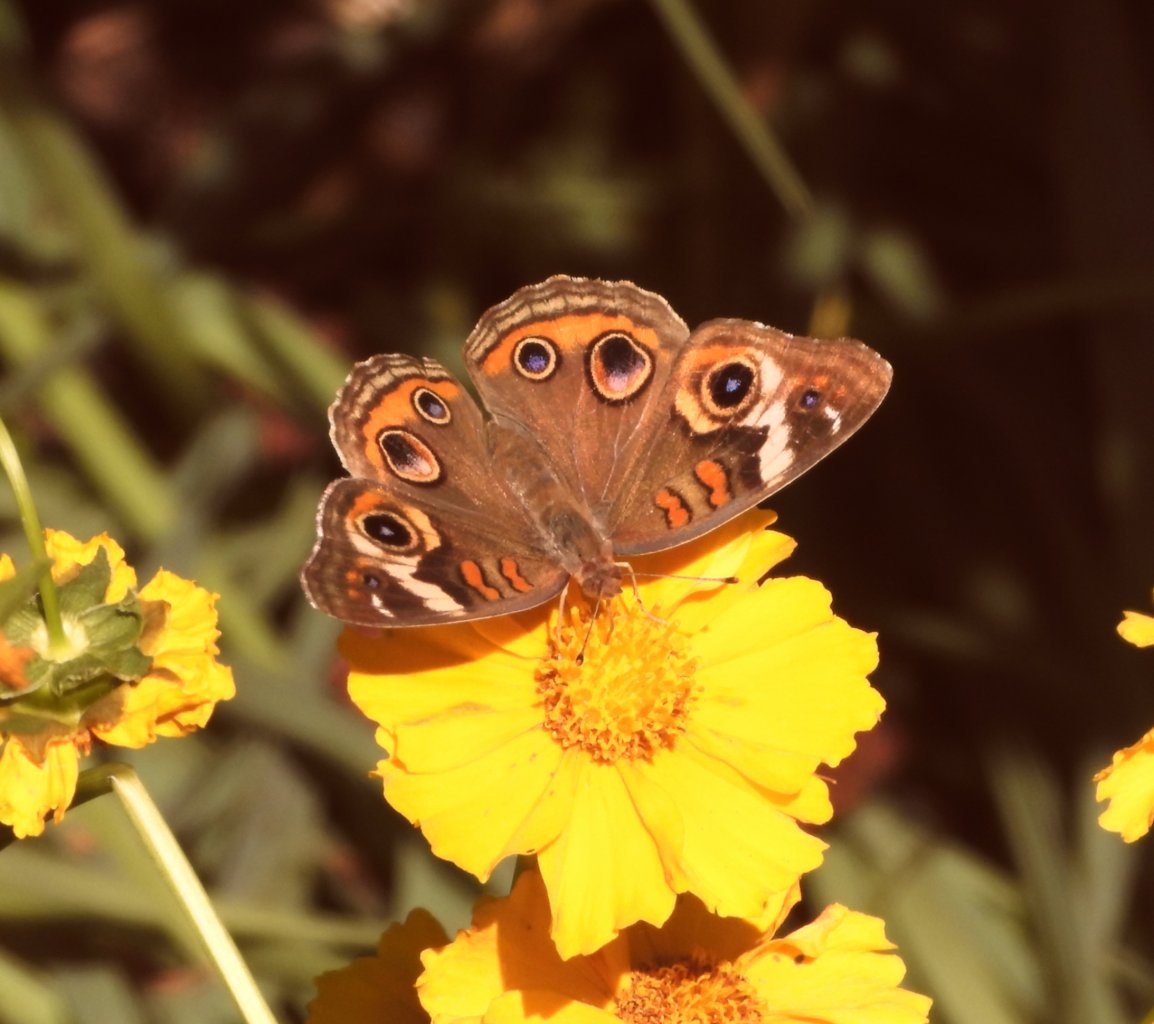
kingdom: Animalia
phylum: Arthropoda
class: Insecta
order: Lepidoptera
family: Nymphalidae
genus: Junonia
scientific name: Junonia coenia
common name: Common Buckeye
